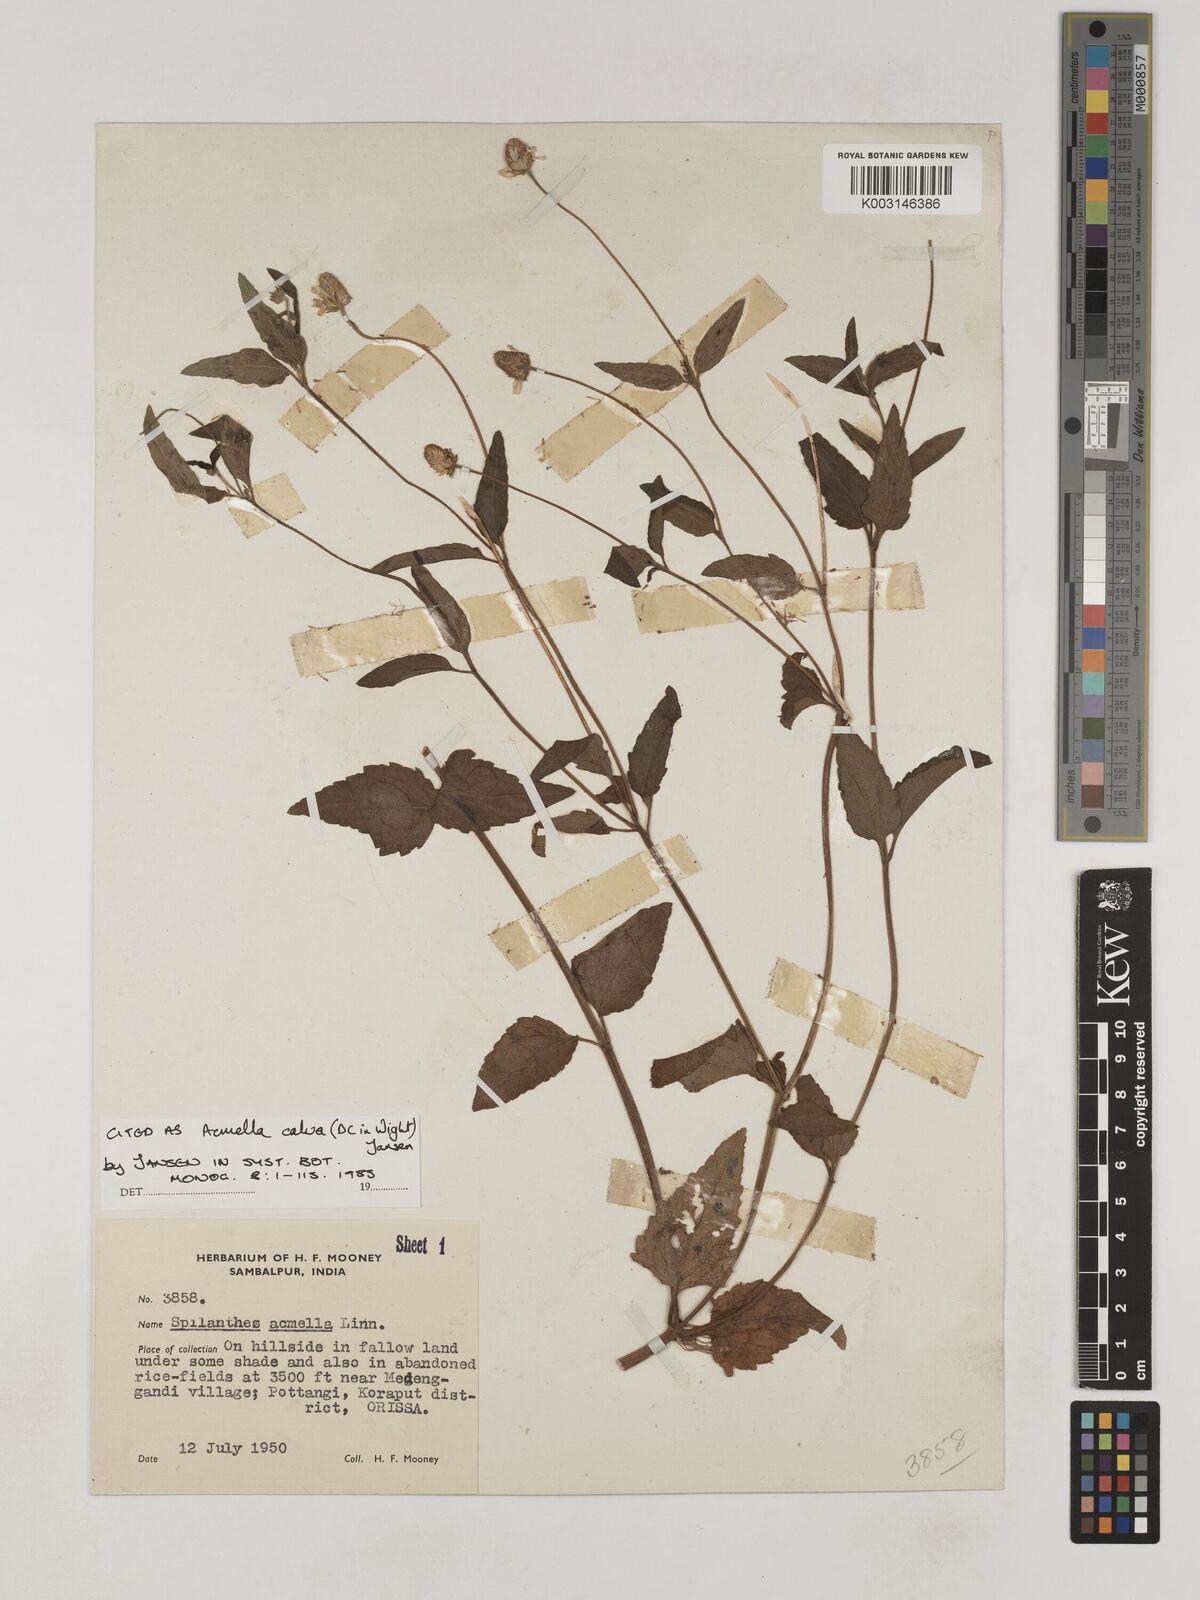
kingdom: Plantae
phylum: Tracheophyta
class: Magnoliopsida
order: Asterales
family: Asteraceae
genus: Acmella
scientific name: Acmella calva
